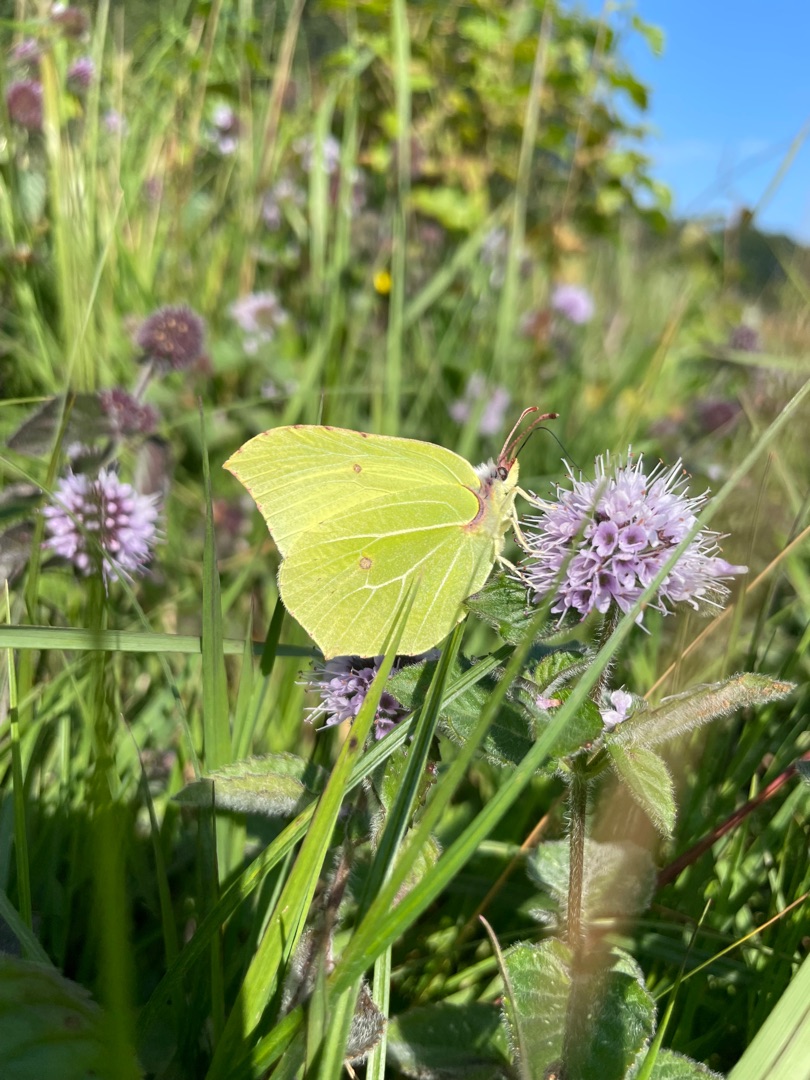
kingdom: Animalia
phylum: Arthropoda
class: Insecta
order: Lepidoptera
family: Pieridae
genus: Gonepteryx
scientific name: Gonepteryx rhamni
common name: Citronsommerfugl
